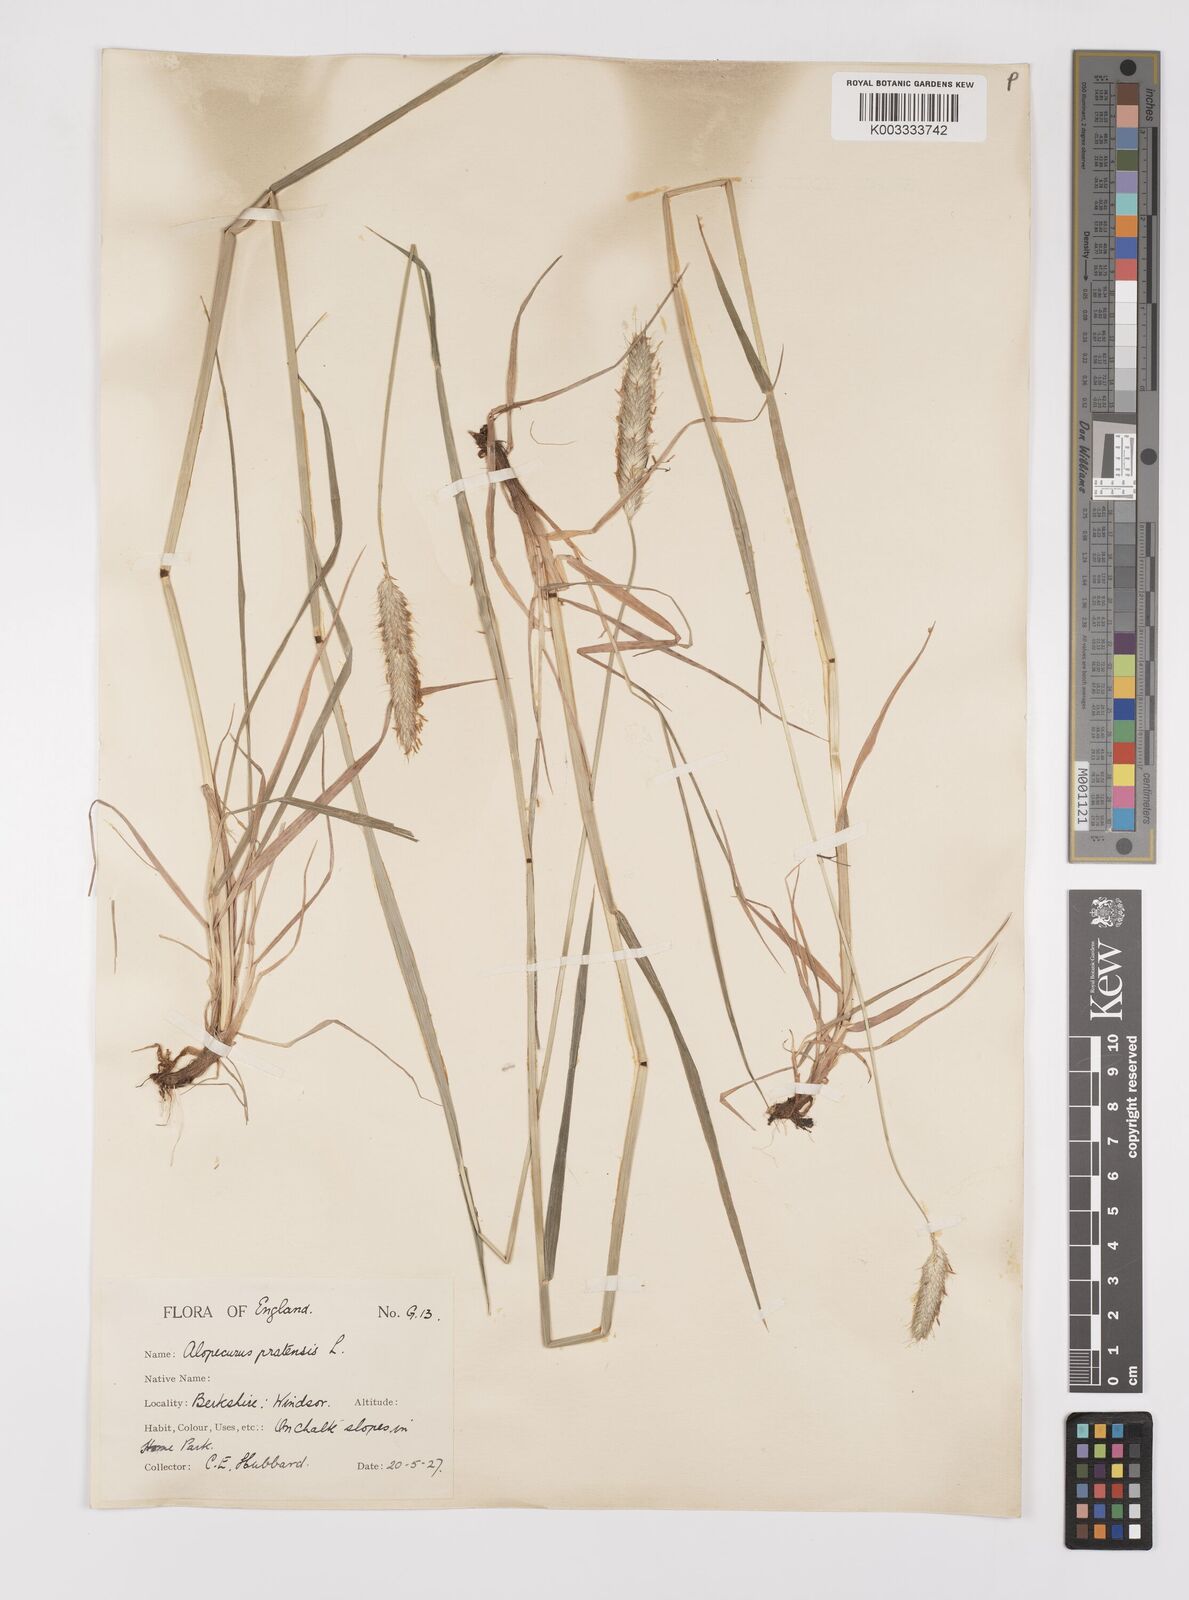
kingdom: Plantae
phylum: Tracheophyta
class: Liliopsida
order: Poales
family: Poaceae
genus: Alopecurus
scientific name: Alopecurus pratensis
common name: Meadow foxtail
